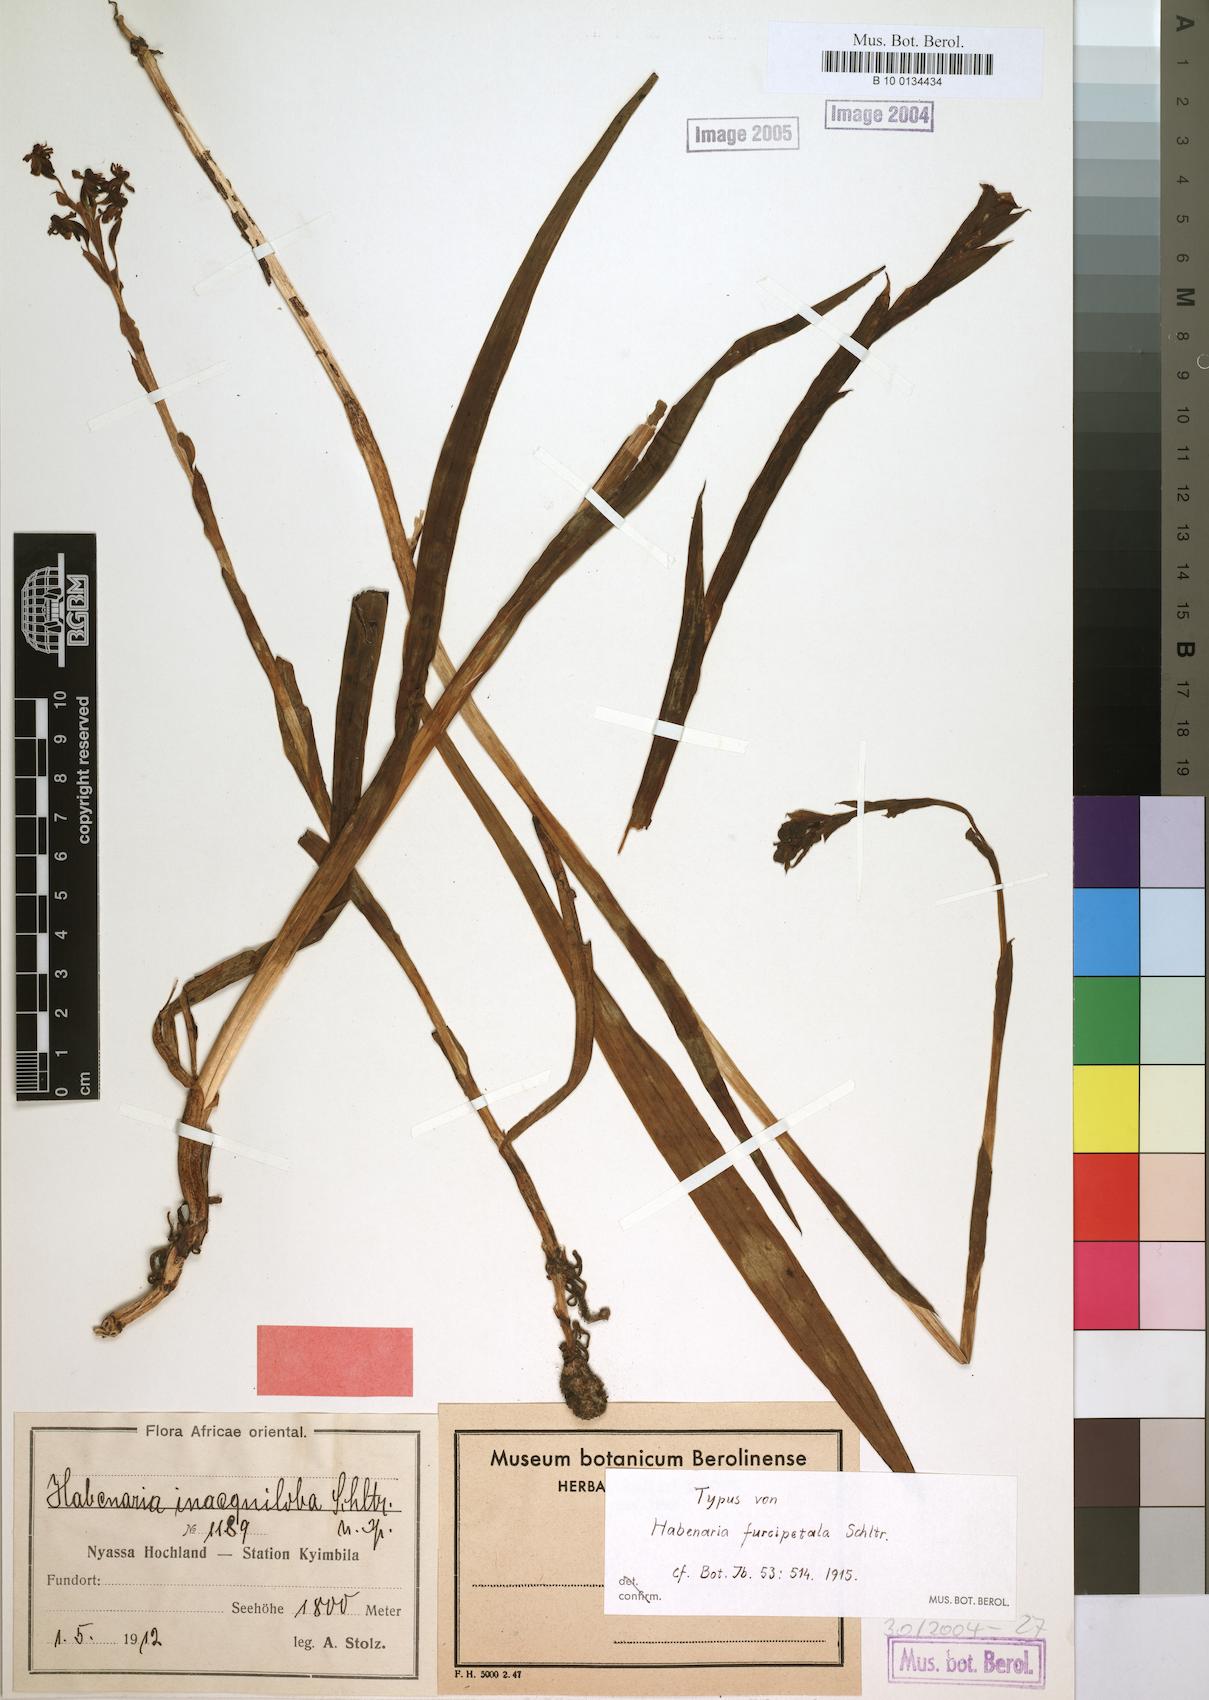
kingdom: Plantae
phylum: Tracheophyta
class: Liliopsida
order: Asparagales
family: Orchidaceae
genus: Habenaria
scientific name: Habenaria inaequiloba
